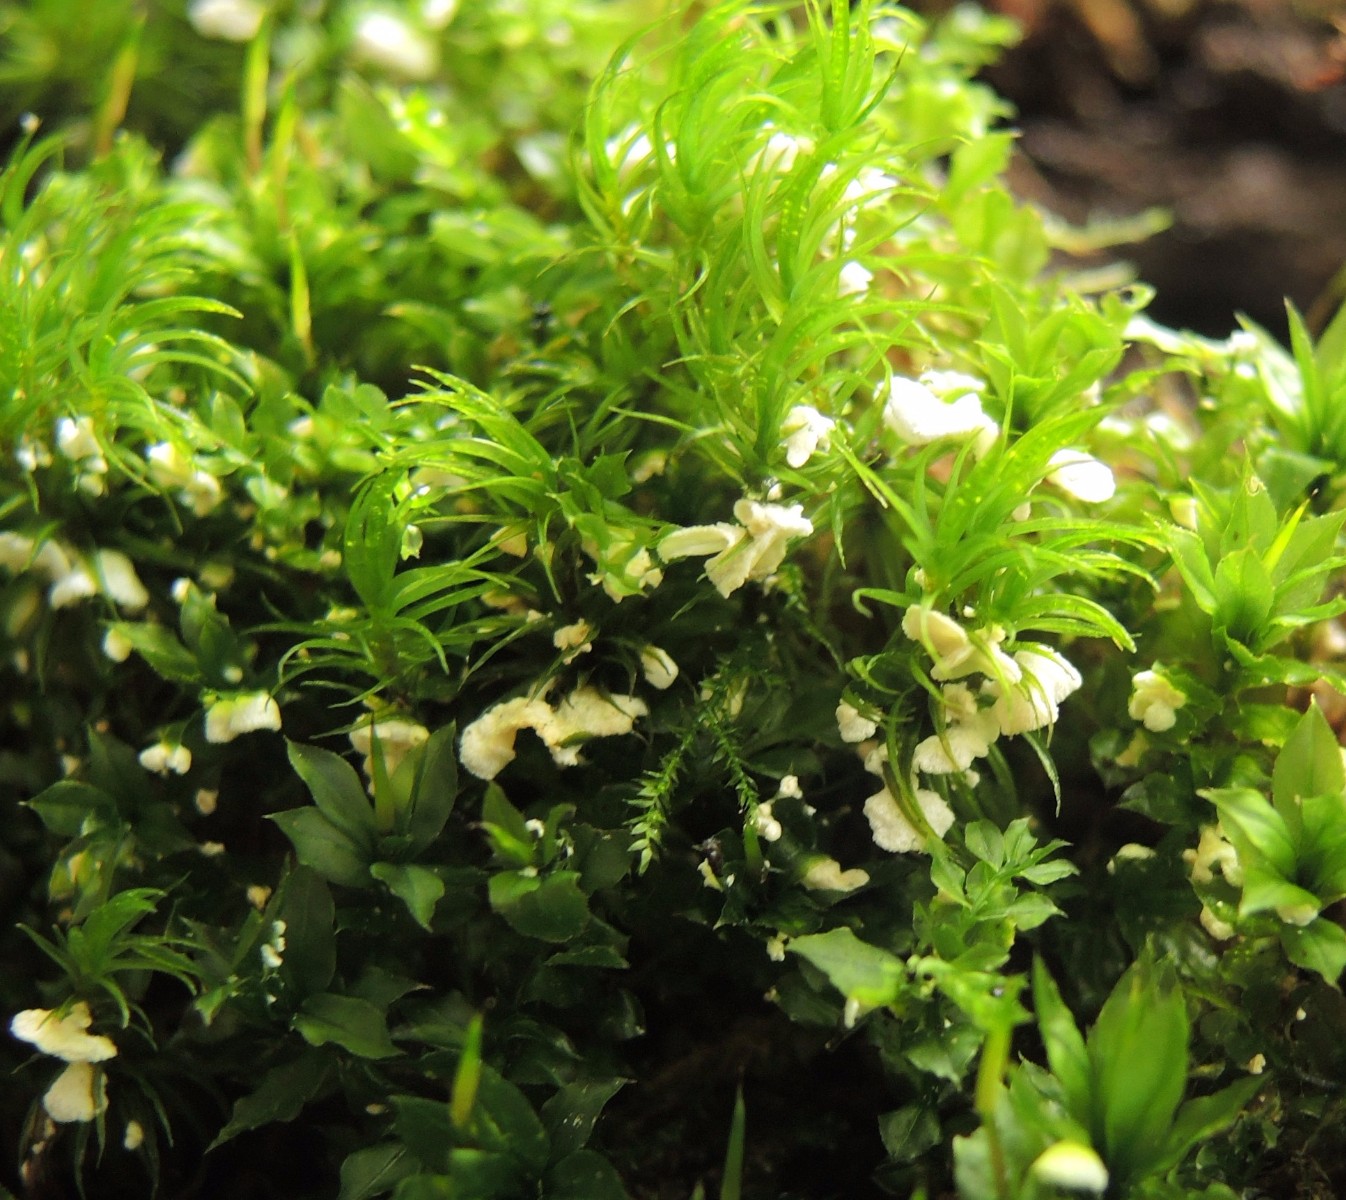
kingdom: Fungi
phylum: Basidiomycota
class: Agaricomycetes
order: Agaricales
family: Tricholomataceae
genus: Rimbachia
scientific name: Rimbachia arachnoidea
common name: Almindelig mosskål
